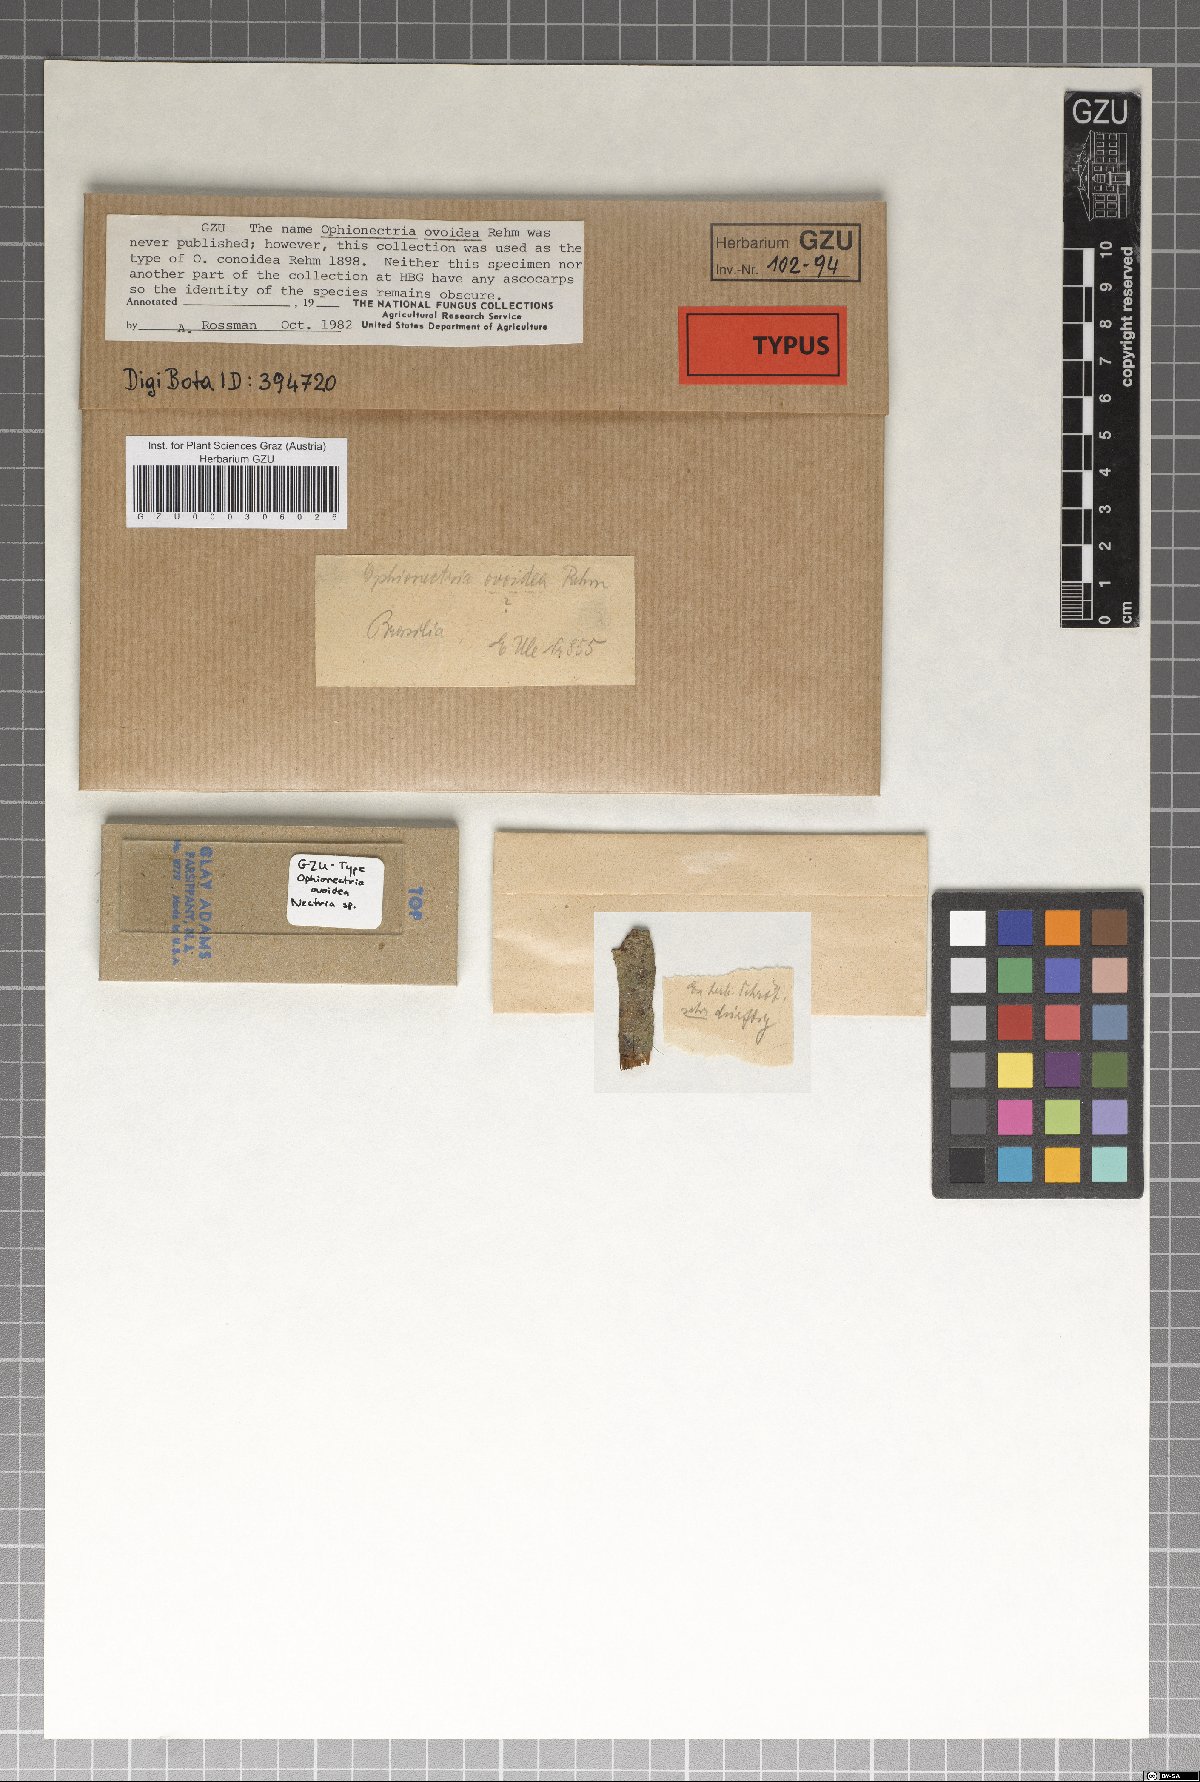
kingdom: Fungi
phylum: Ascomycota
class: Sordariomycetes
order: Hypocreales
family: Nectriaceae
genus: Ophionectria
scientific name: Ophionectria
